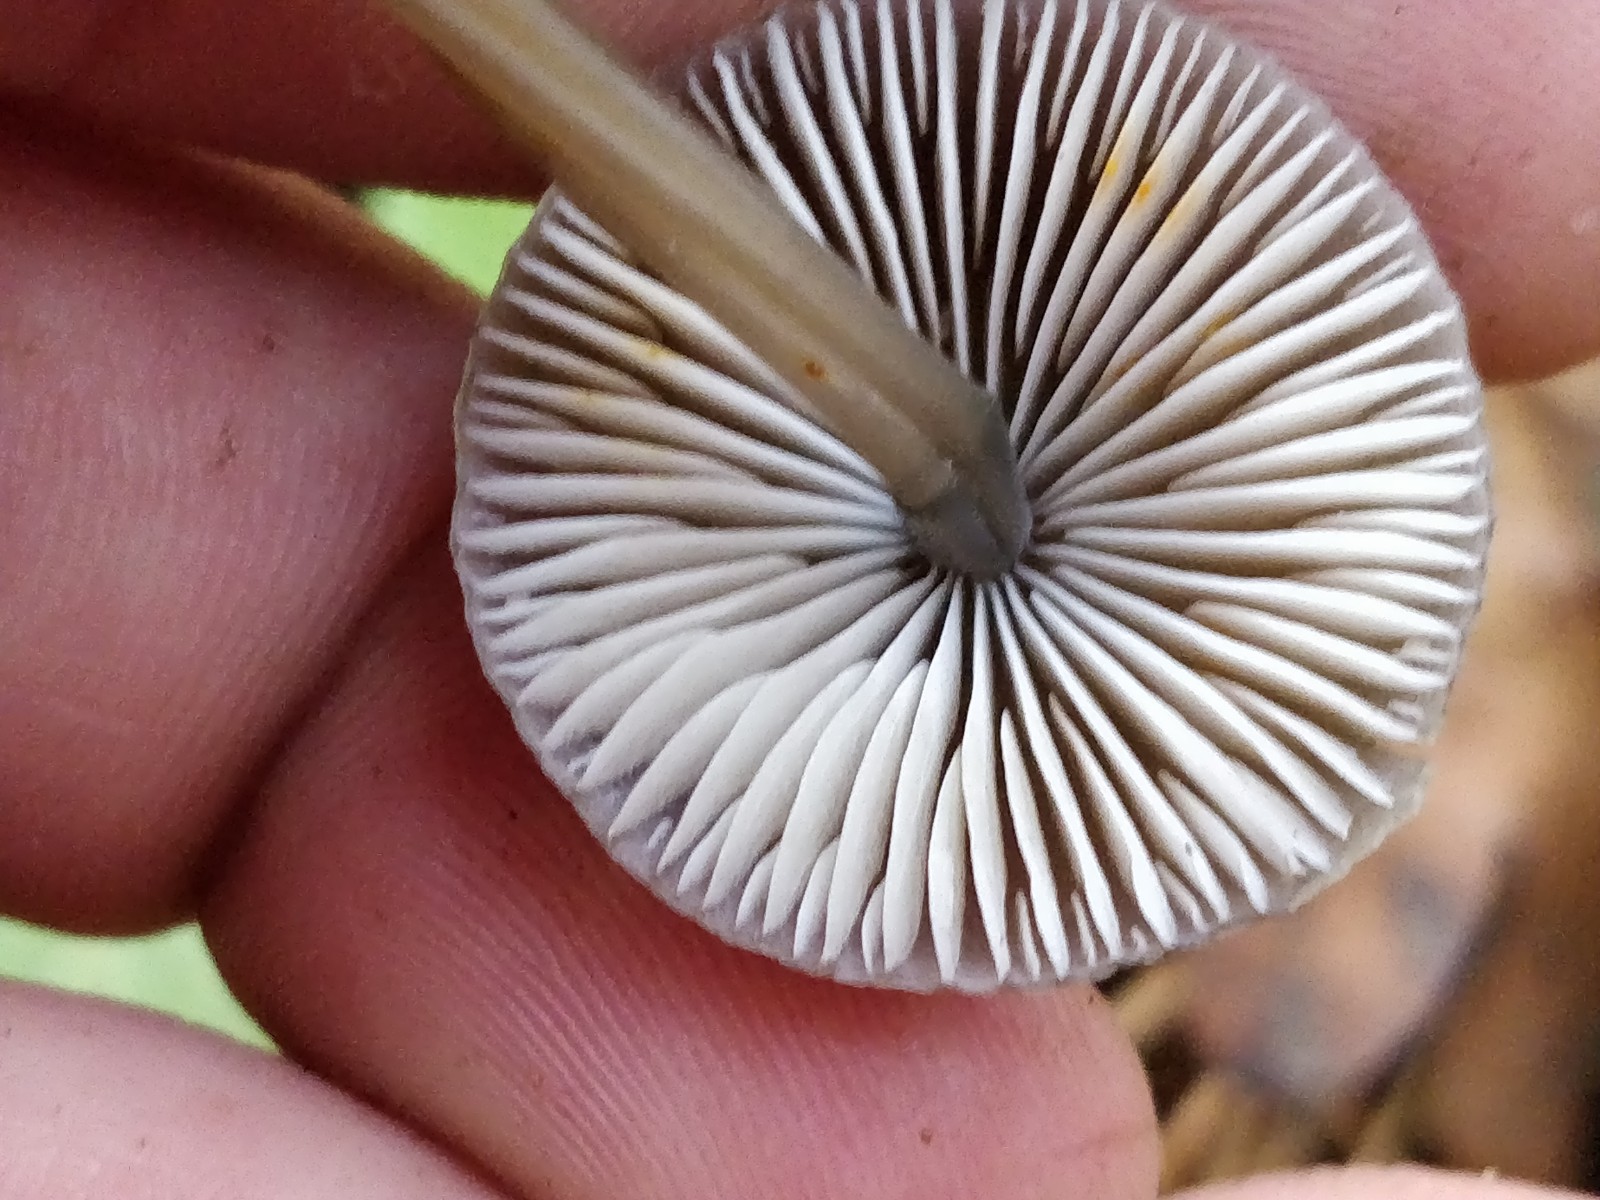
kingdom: Fungi
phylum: Basidiomycota
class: Agaricomycetes
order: Agaricales
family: Mycenaceae
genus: Mycena
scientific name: Mycena crocata
